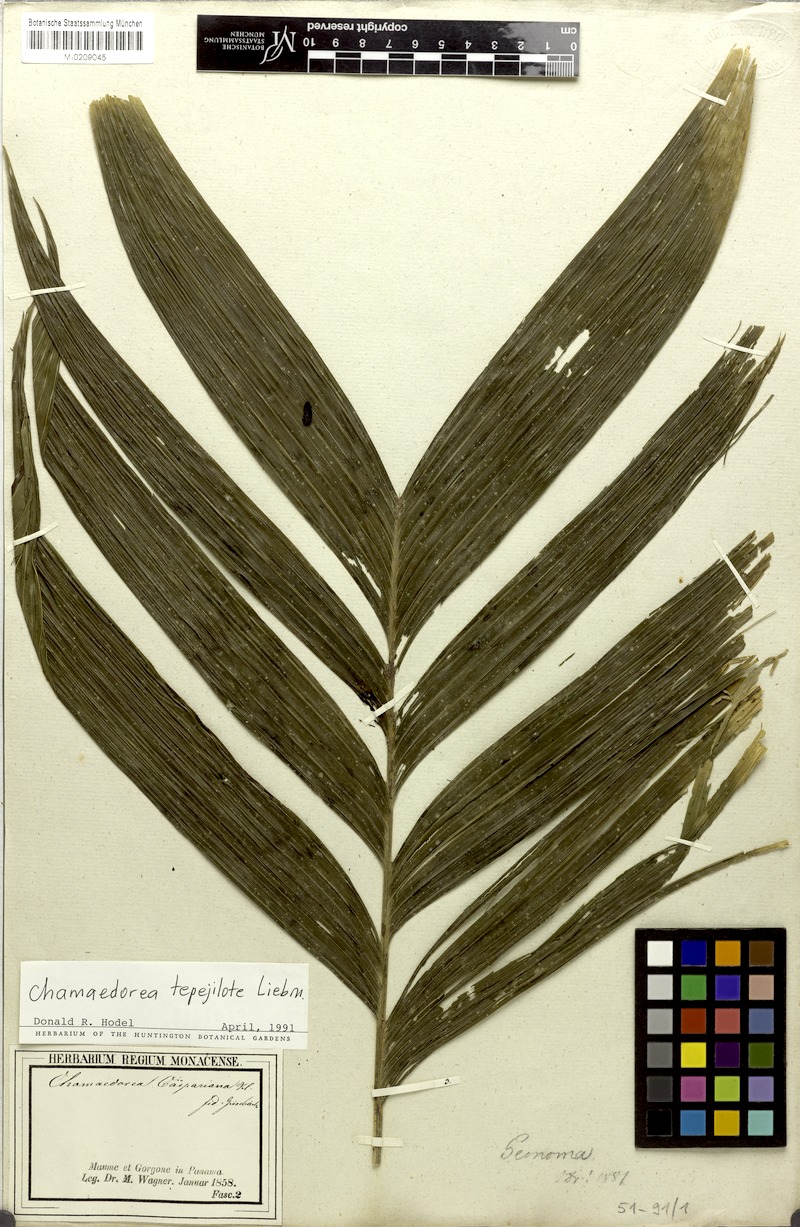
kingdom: Plantae
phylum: Tracheophyta
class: Liliopsida
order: Arecales
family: Arecaceae
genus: Chamaedorea
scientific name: Chamaedorea tepejilote
